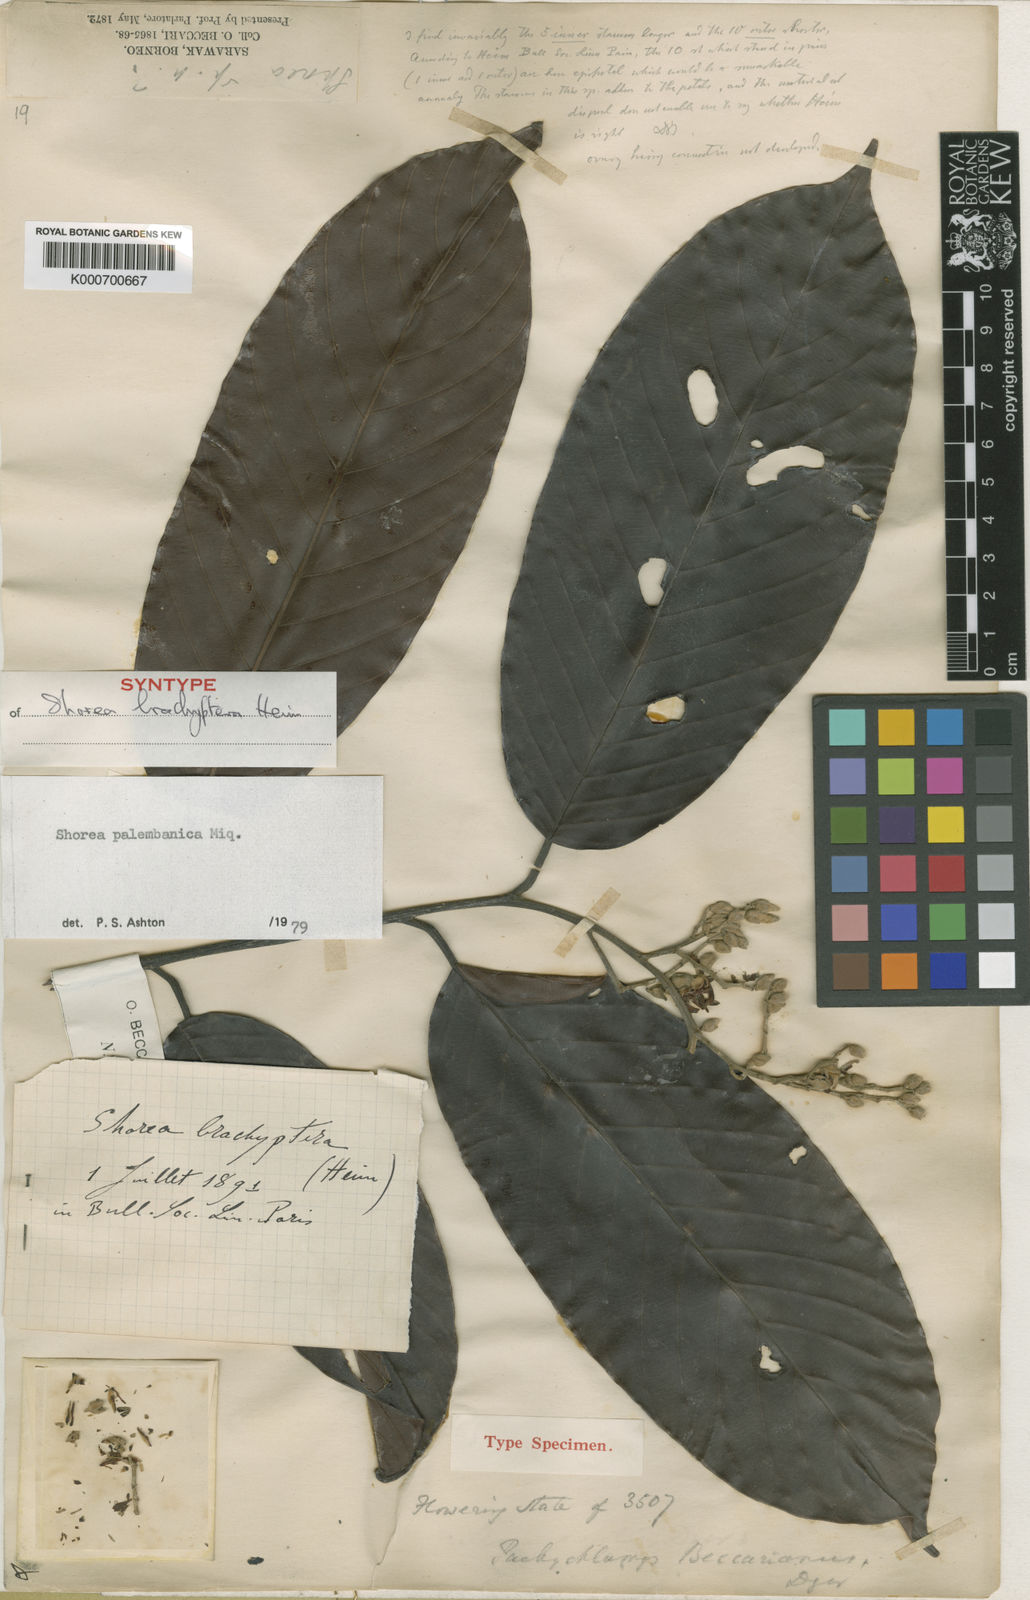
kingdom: Plantae
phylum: Tracheophyta
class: Magnoliopsida
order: Malvales
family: Dipterocarpaceae
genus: Shorea
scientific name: Shorea palembanica
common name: Light red meranti
